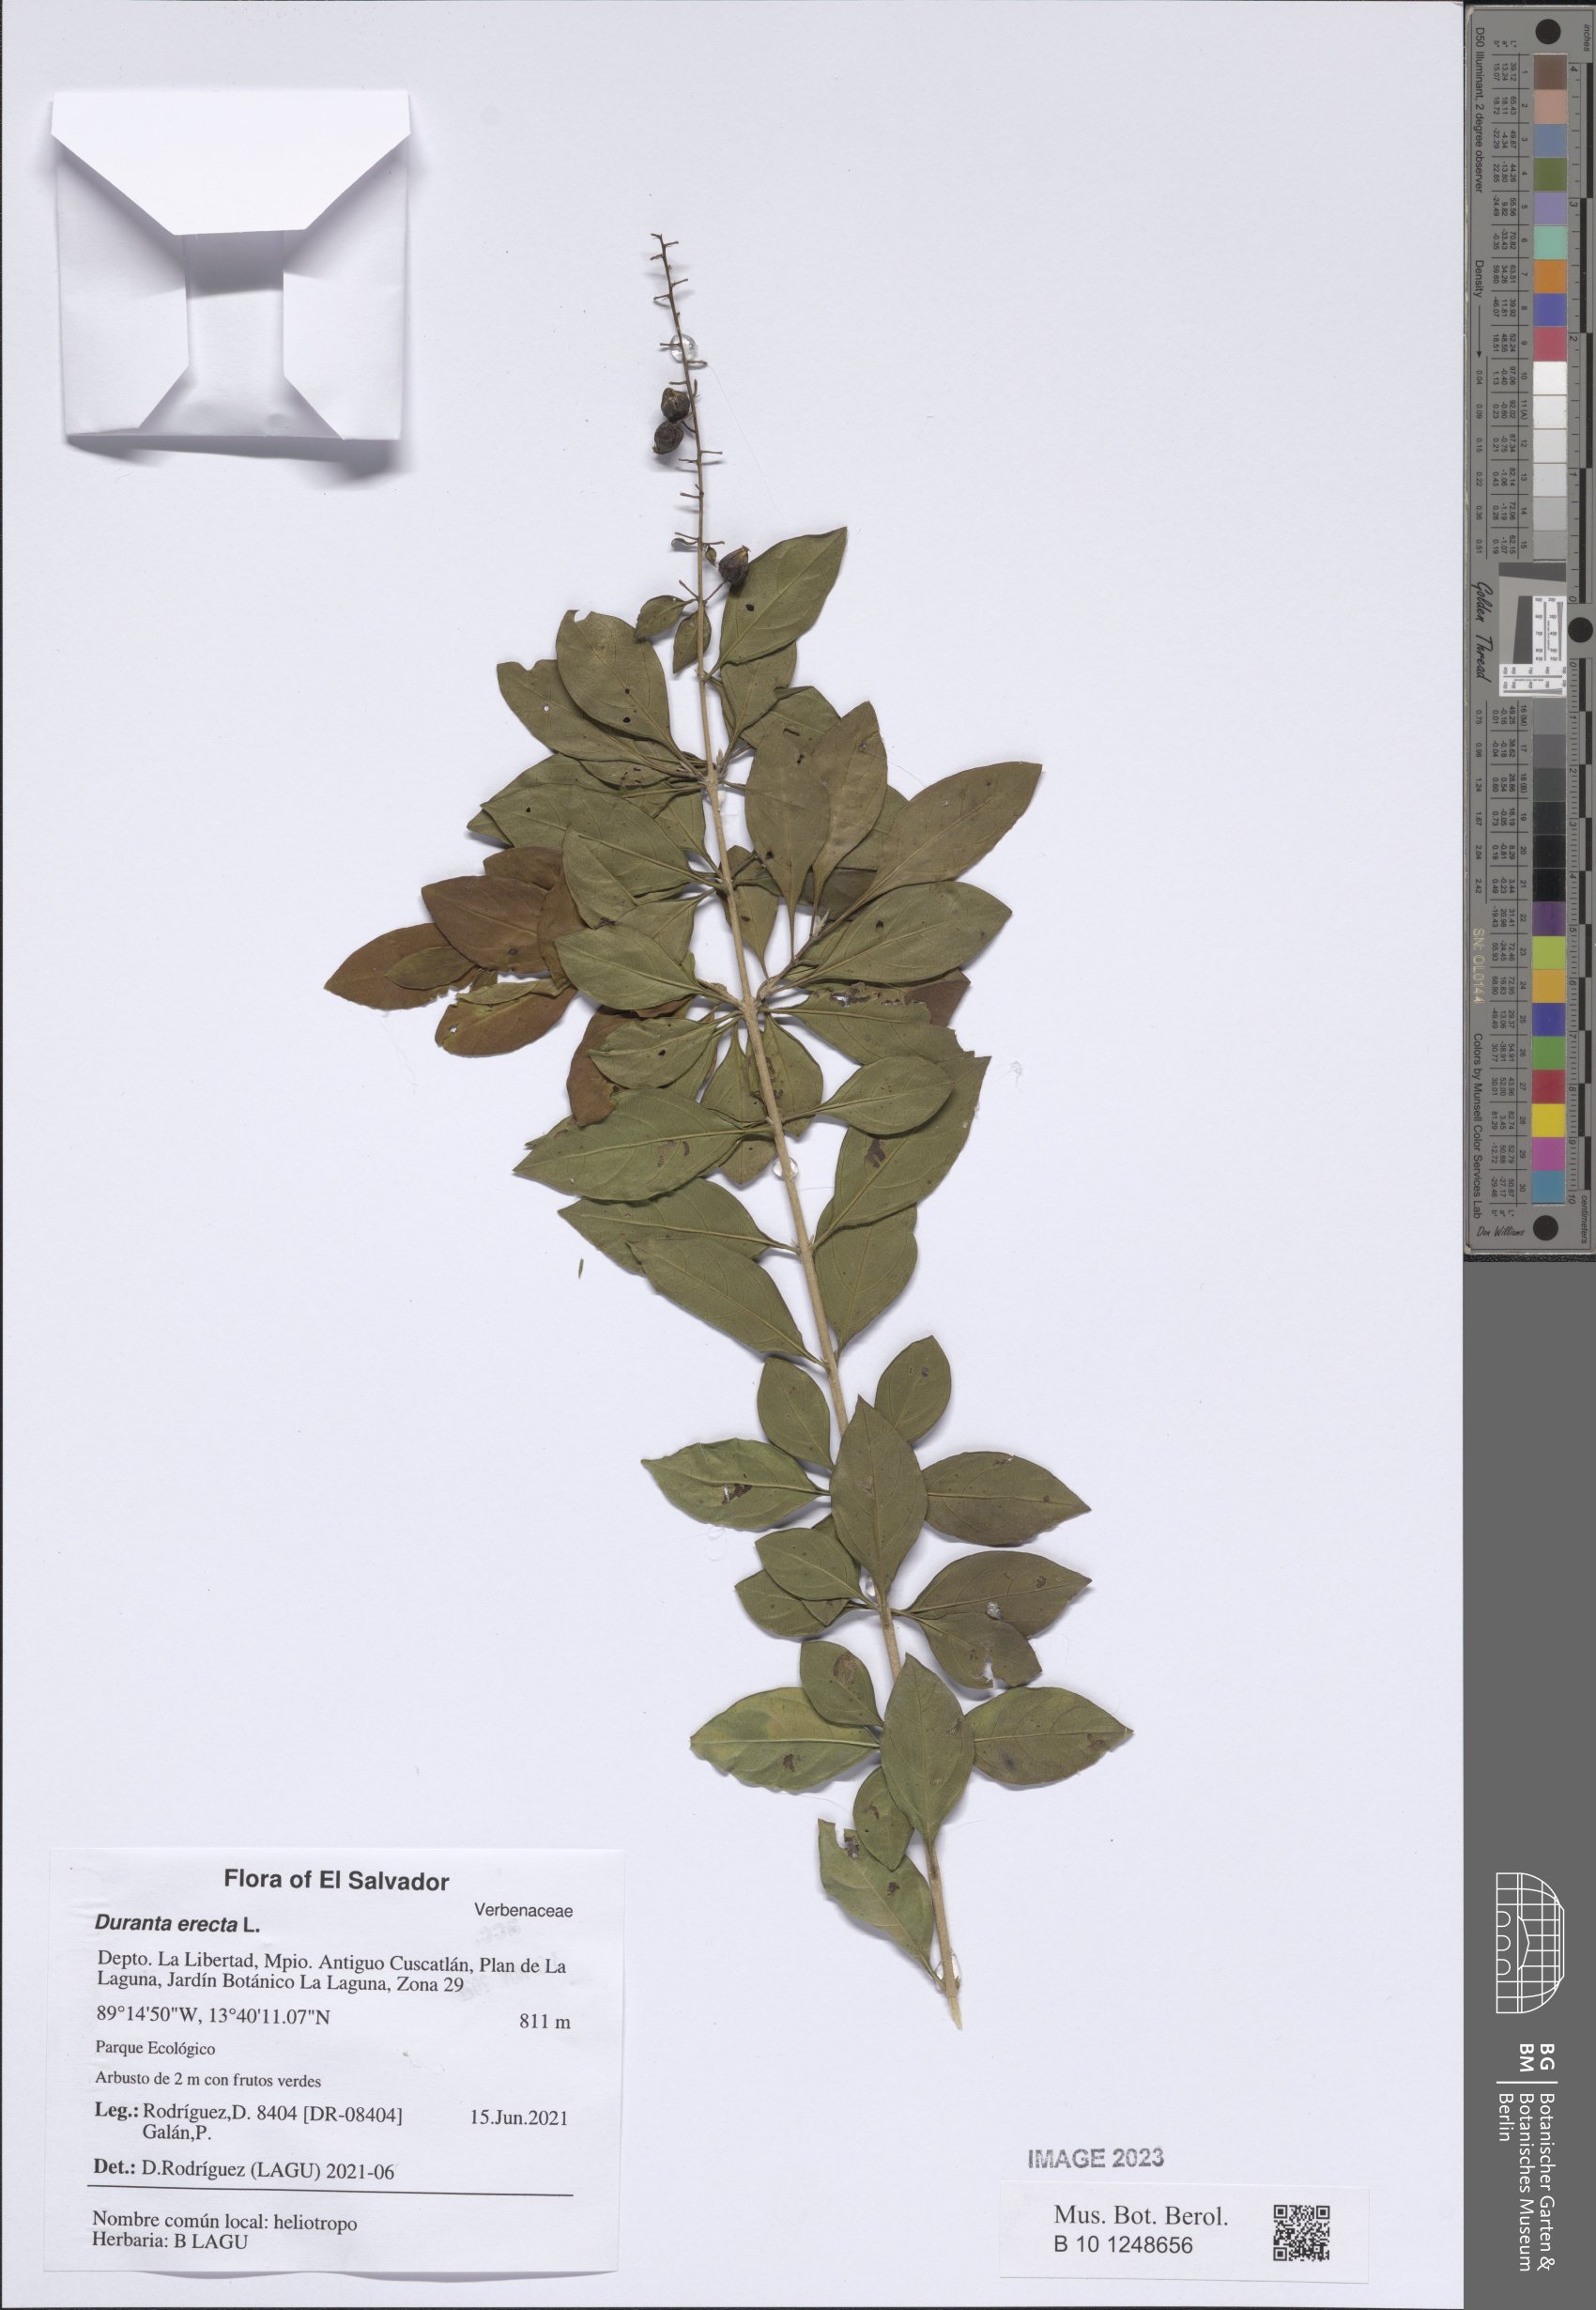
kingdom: Plantae
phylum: Tracheophyta
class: Magnoliopsida
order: Lamiales
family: Verbenaceae
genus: Duranta
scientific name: Duranta erecta
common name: Golden dewdrops
